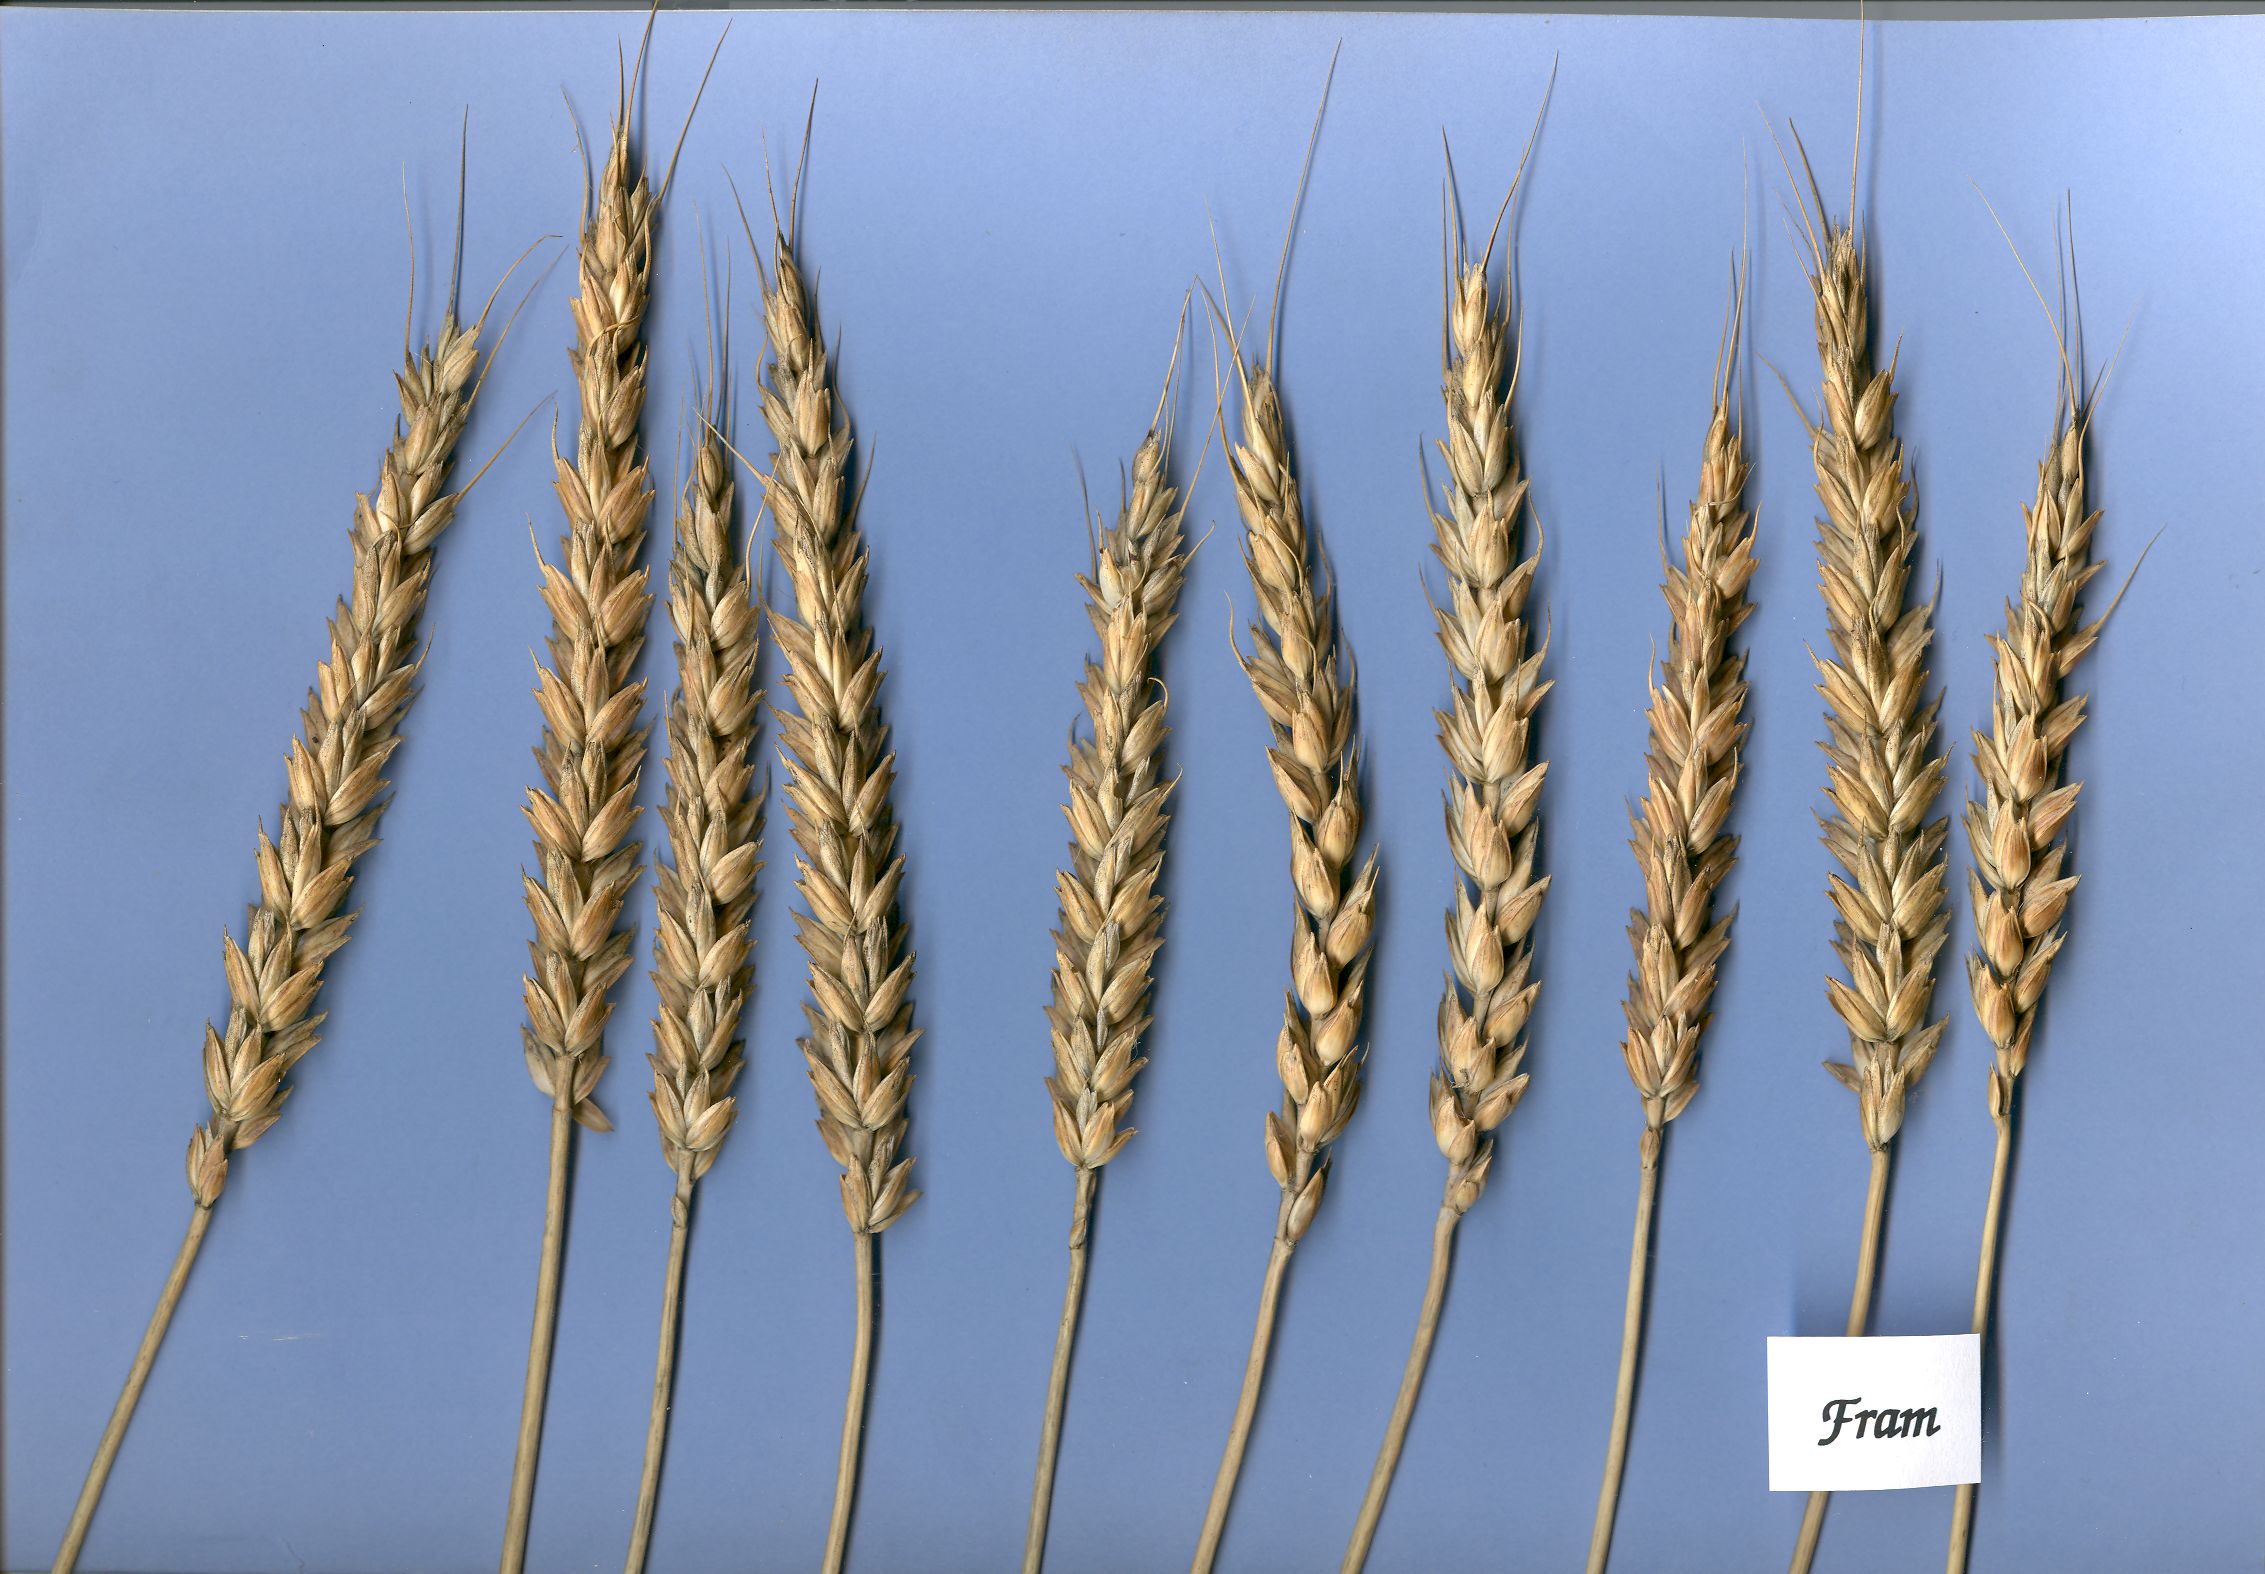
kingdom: Plantae
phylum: Tracheophyta
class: Liliopsida
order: Poales
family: Poaceae
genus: Triticum
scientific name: Triticum aestivum
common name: Common wheat
